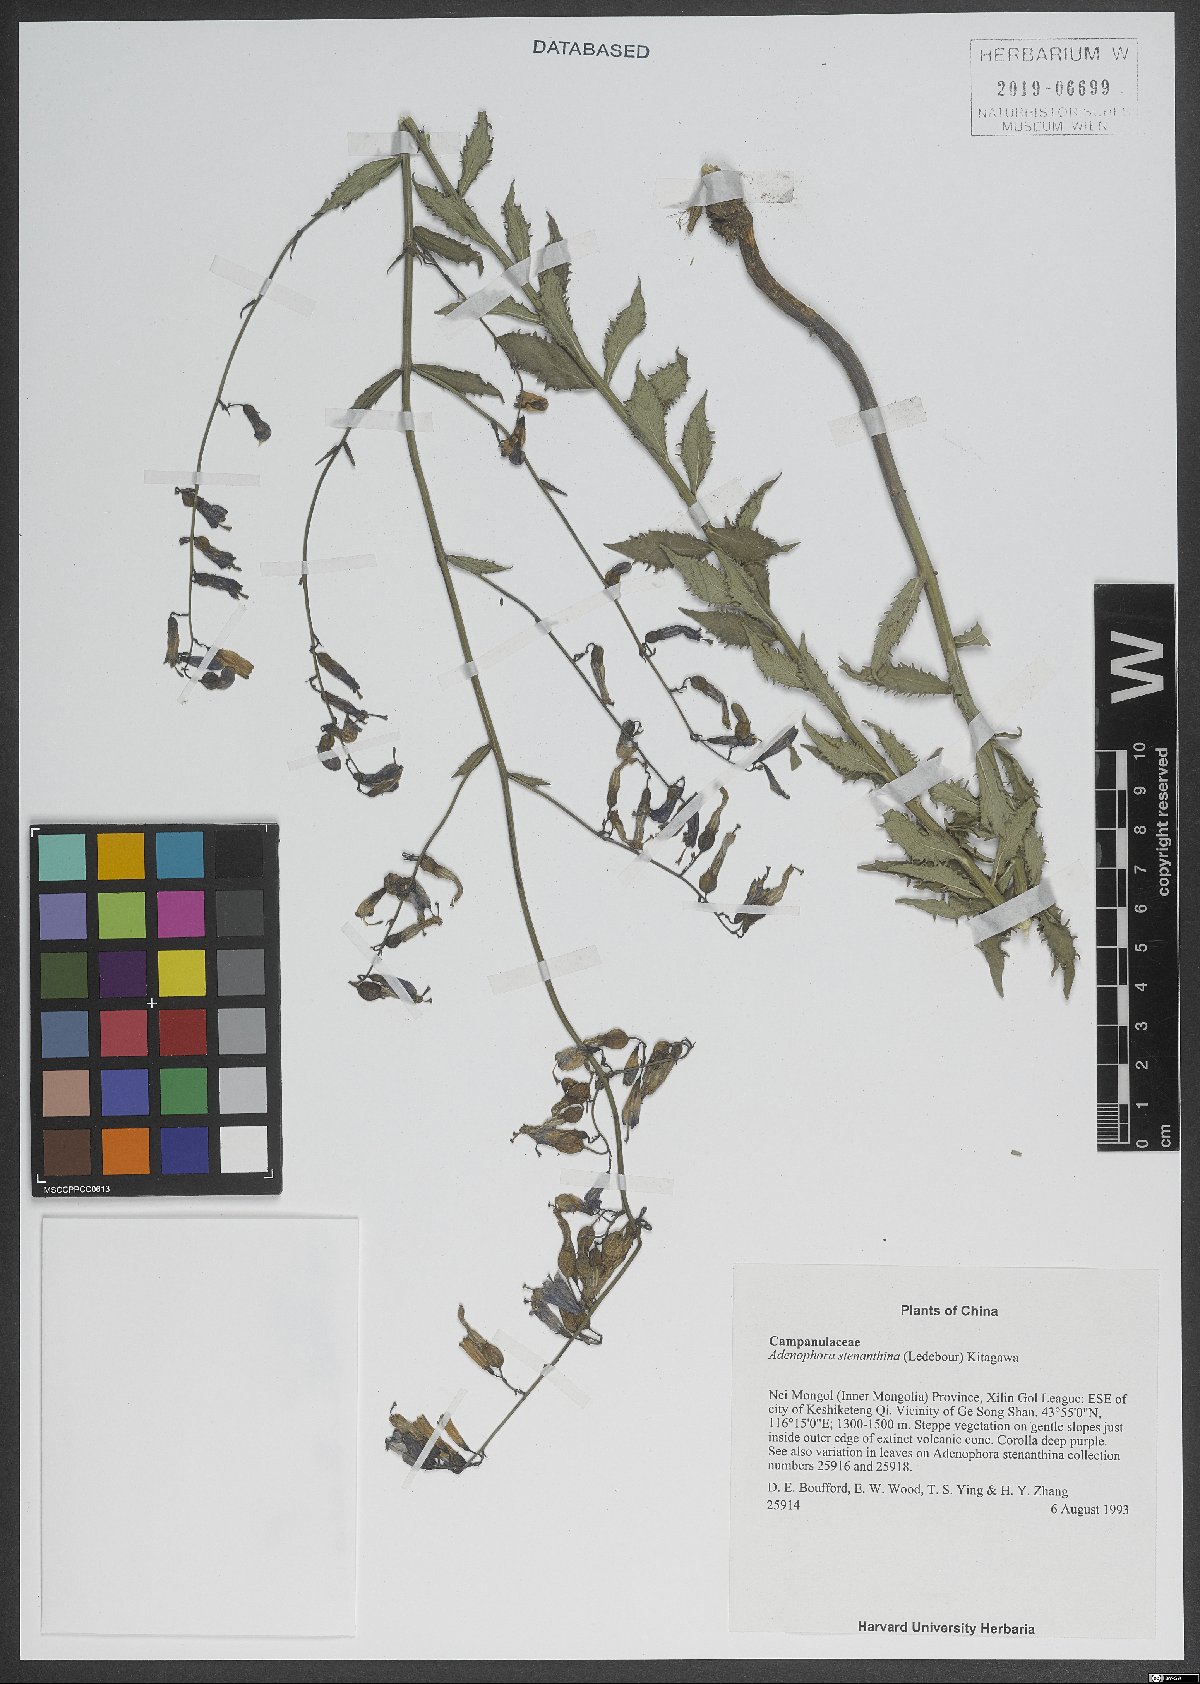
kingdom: Plantae
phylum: Tracheophyta
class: Magnoliopsida
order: Asterales
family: Campanulaceae
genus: Adenophora
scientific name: Adenophora stenanthina
